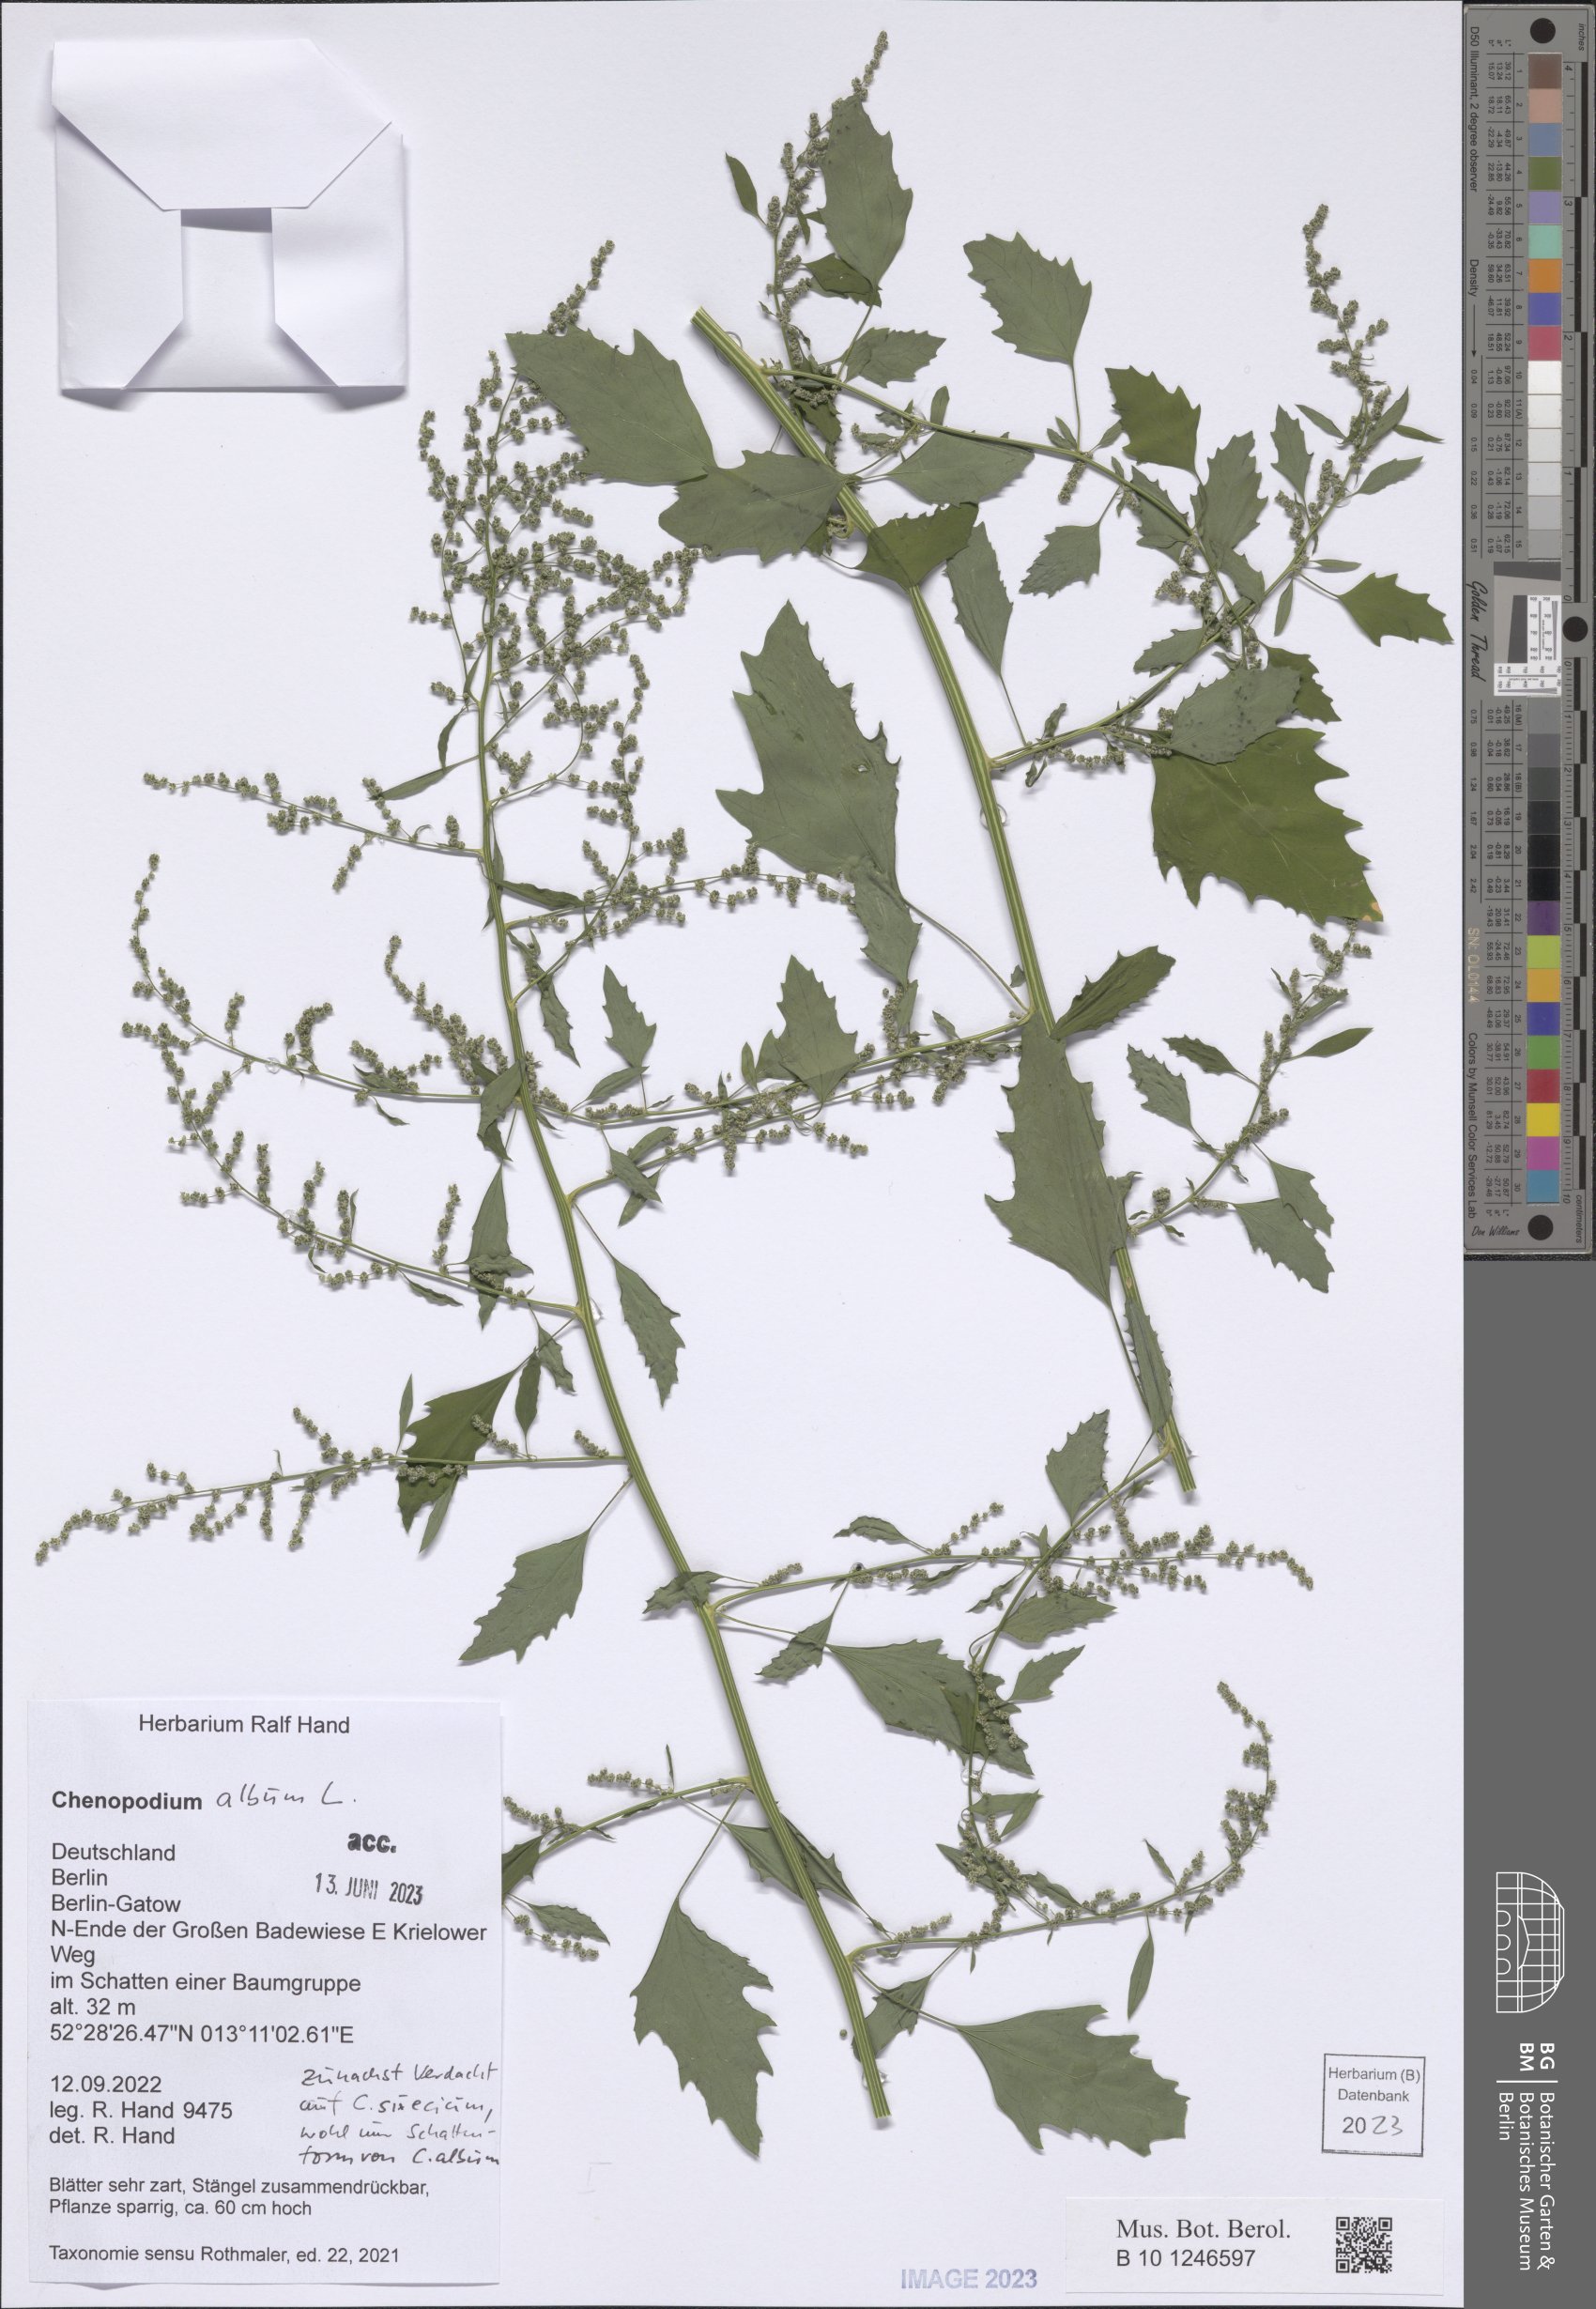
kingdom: Plantae
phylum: Tracheophyta
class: Magnoliopsida
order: Caryophyllales
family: Amaranthaceae
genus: Chenopodium
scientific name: Chenopodium album
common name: Fat-hen
